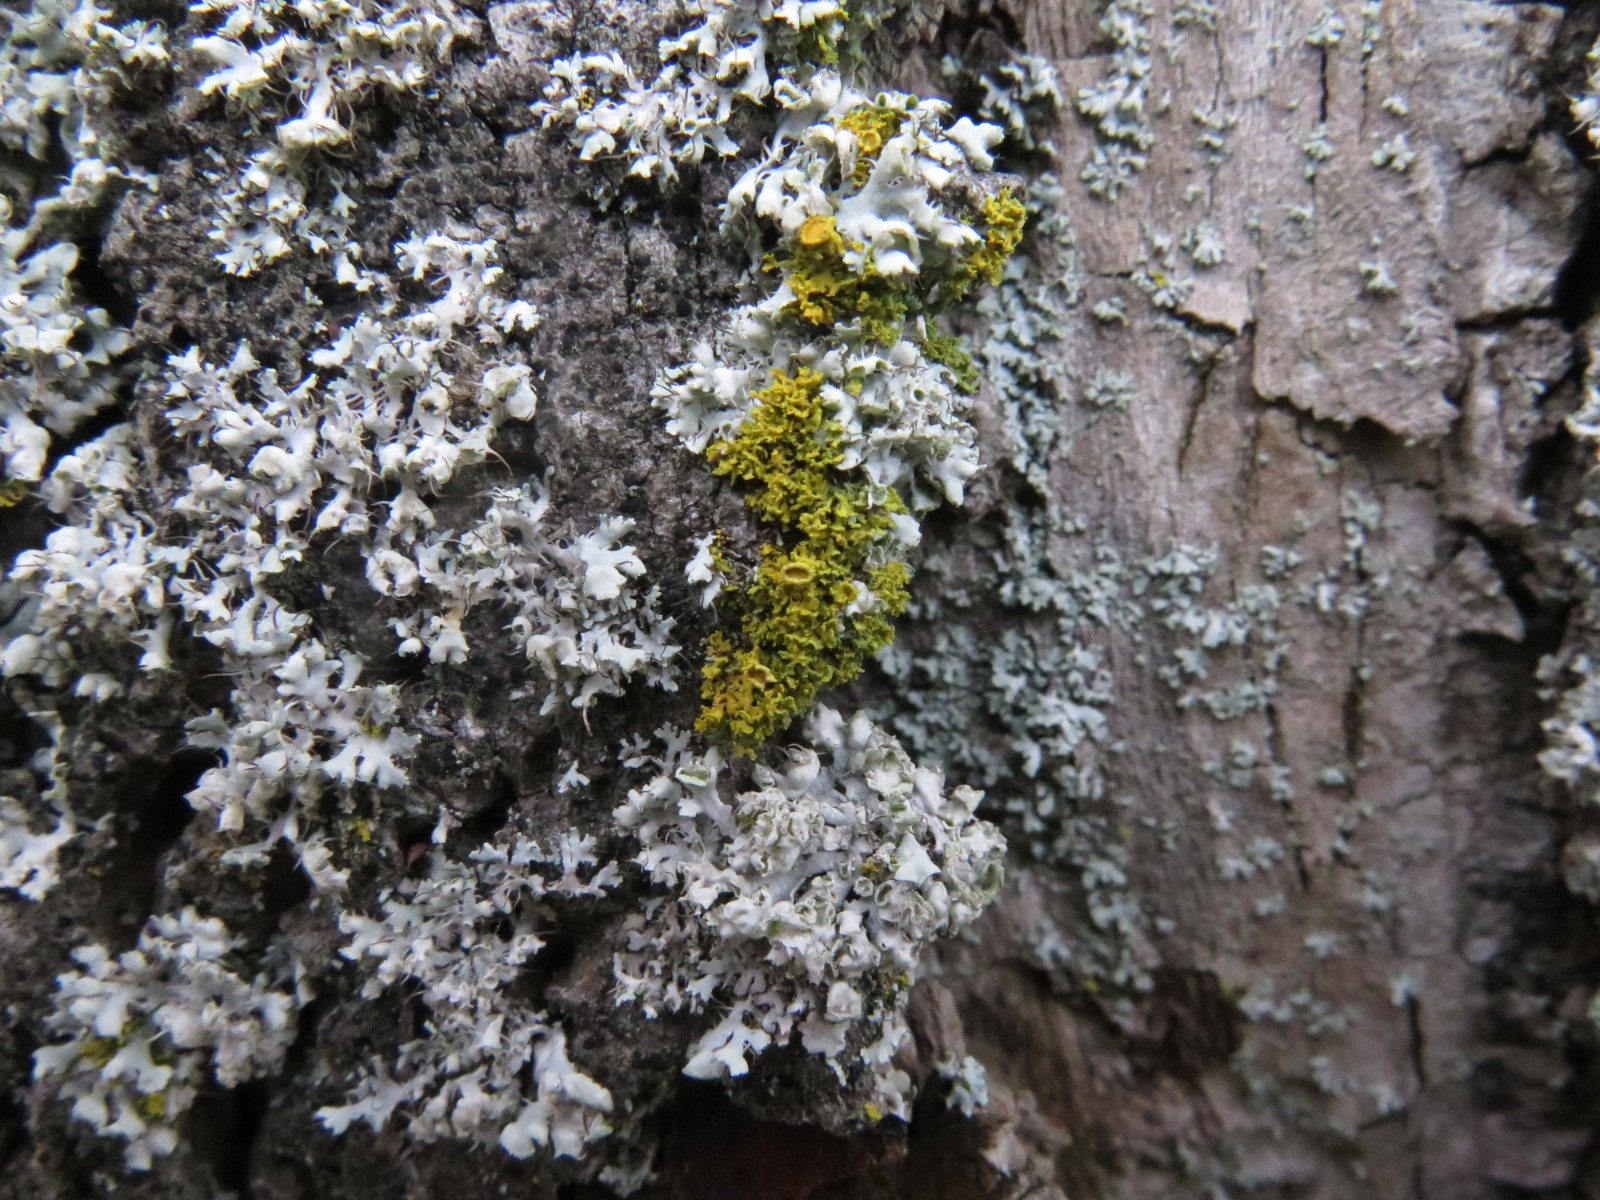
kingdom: Fungi
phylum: Ascomycota
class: Lecanoromycetes
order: Teloschistales
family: Teloschistaceae
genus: Polycauliona
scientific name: Polycauliona candelaria
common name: tue-orangelav
